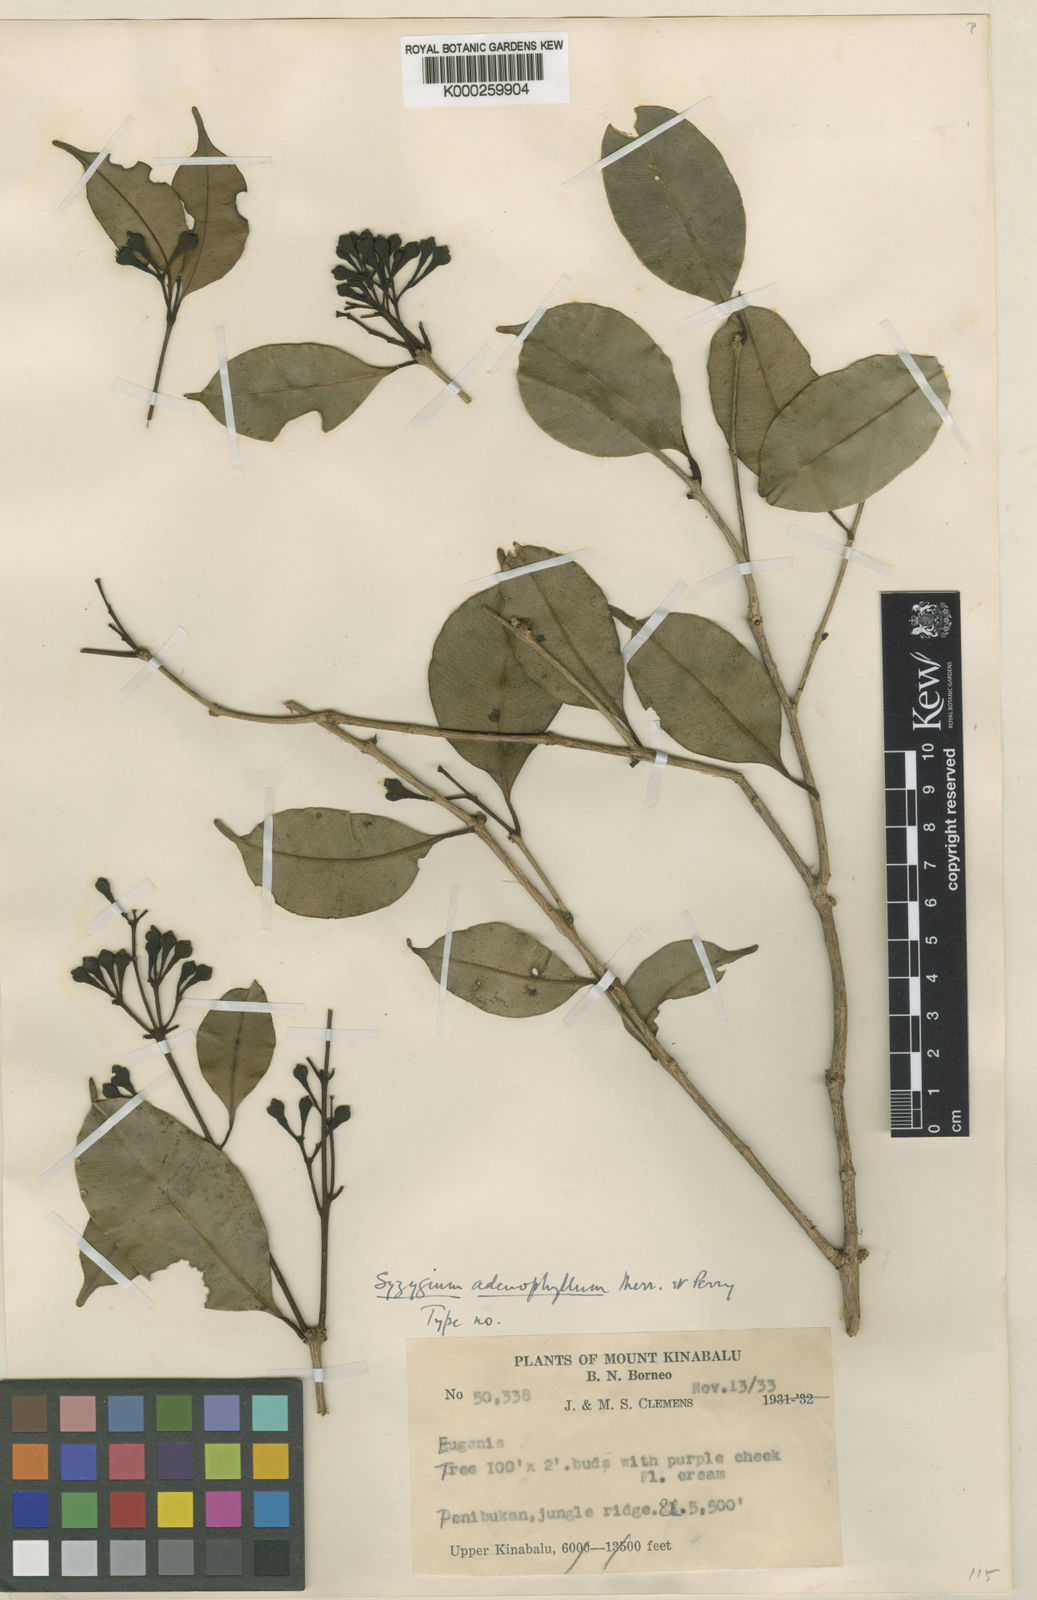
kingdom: Plantae
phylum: Tracheophyta
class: Magnoliopsida
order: Myrtales
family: Myrtaceae
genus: Syzygium
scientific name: Syzygium adenophyllum
